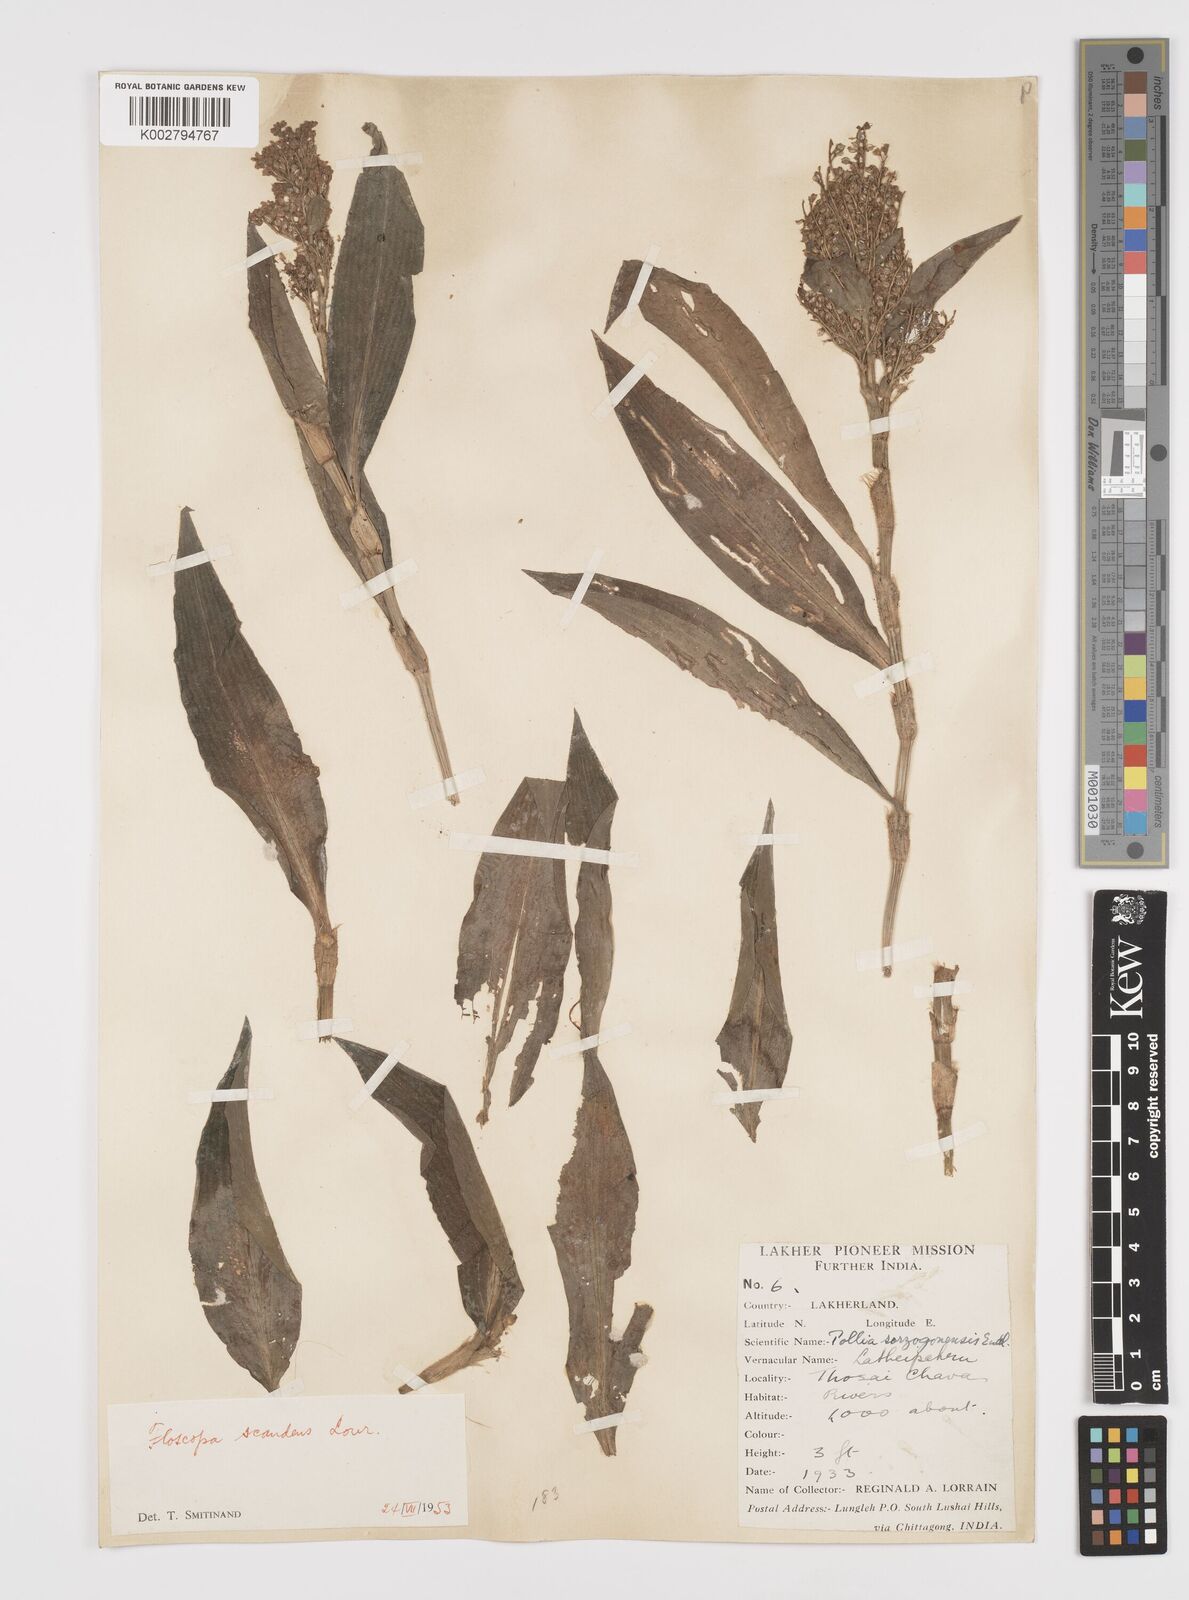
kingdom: Plantae
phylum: Tracheophyta
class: Liliopsida
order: Commelinales
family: Commelinaceae
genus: Floscopa
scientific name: Floscopa scandens
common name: Climbing flower cup
